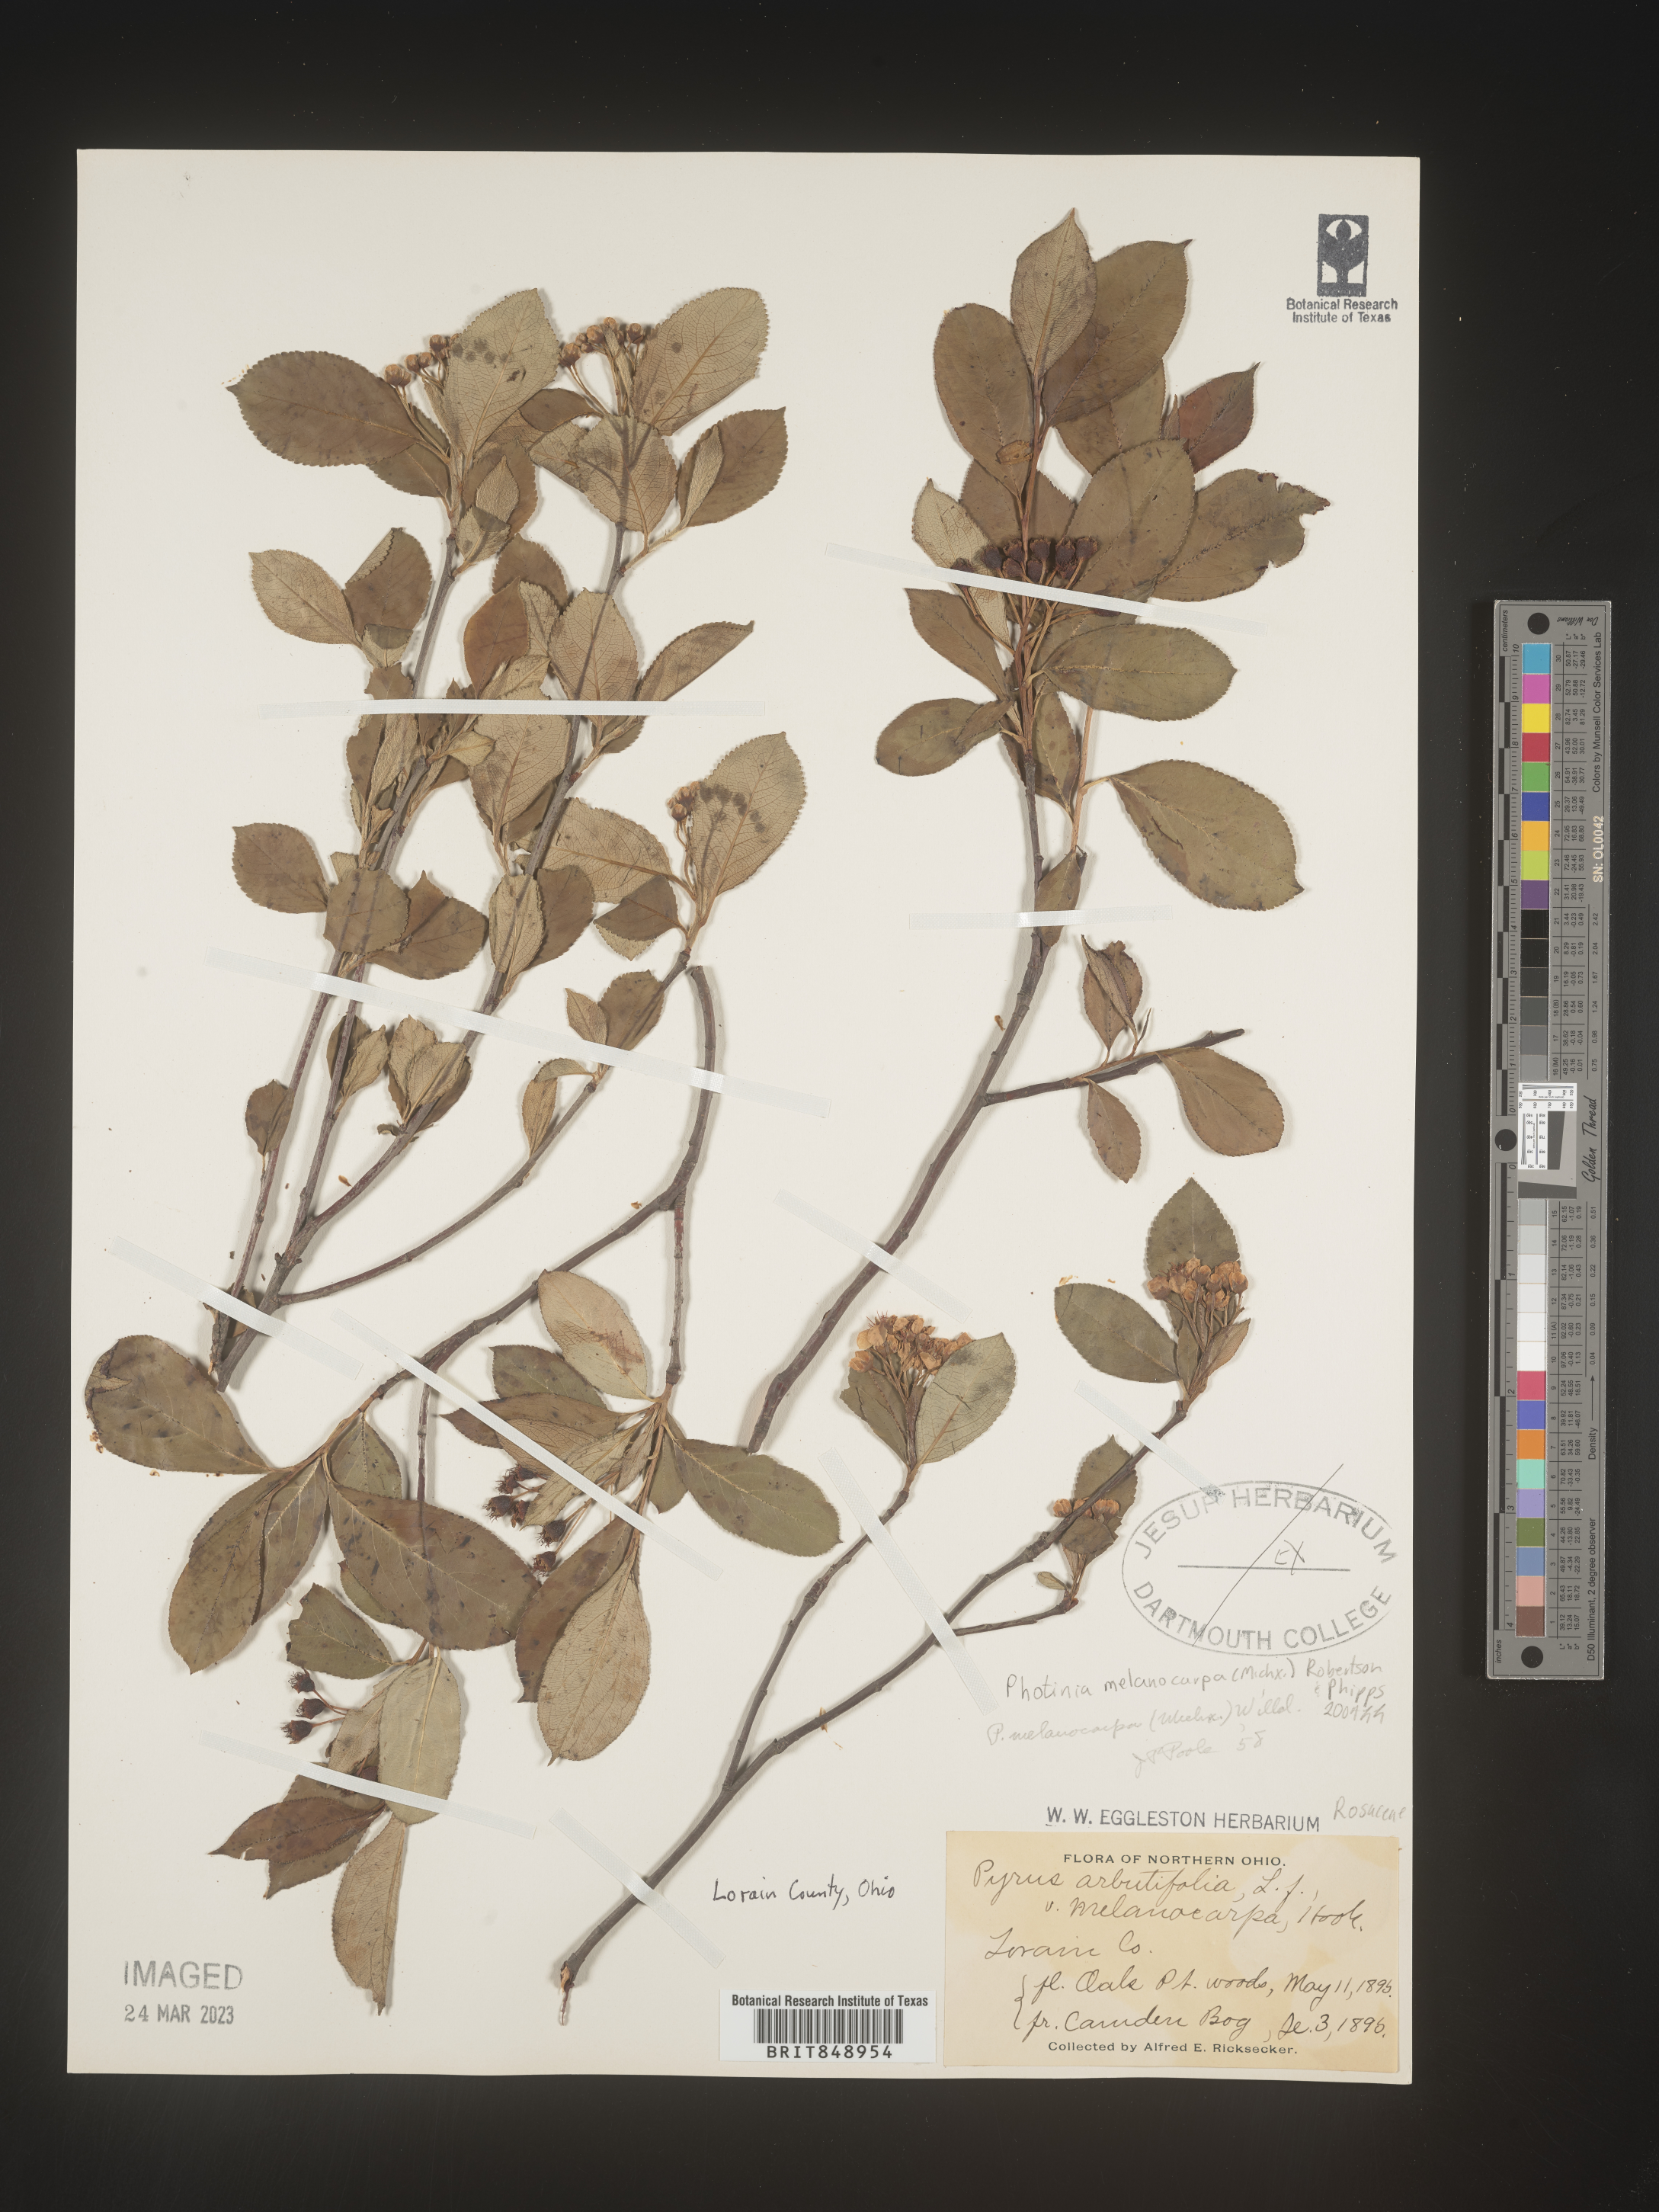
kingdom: Plantae
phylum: Tracheophyta
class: Magnoliopsida
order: Rosales
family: Rosaceae
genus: Photinia
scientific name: Photinia
